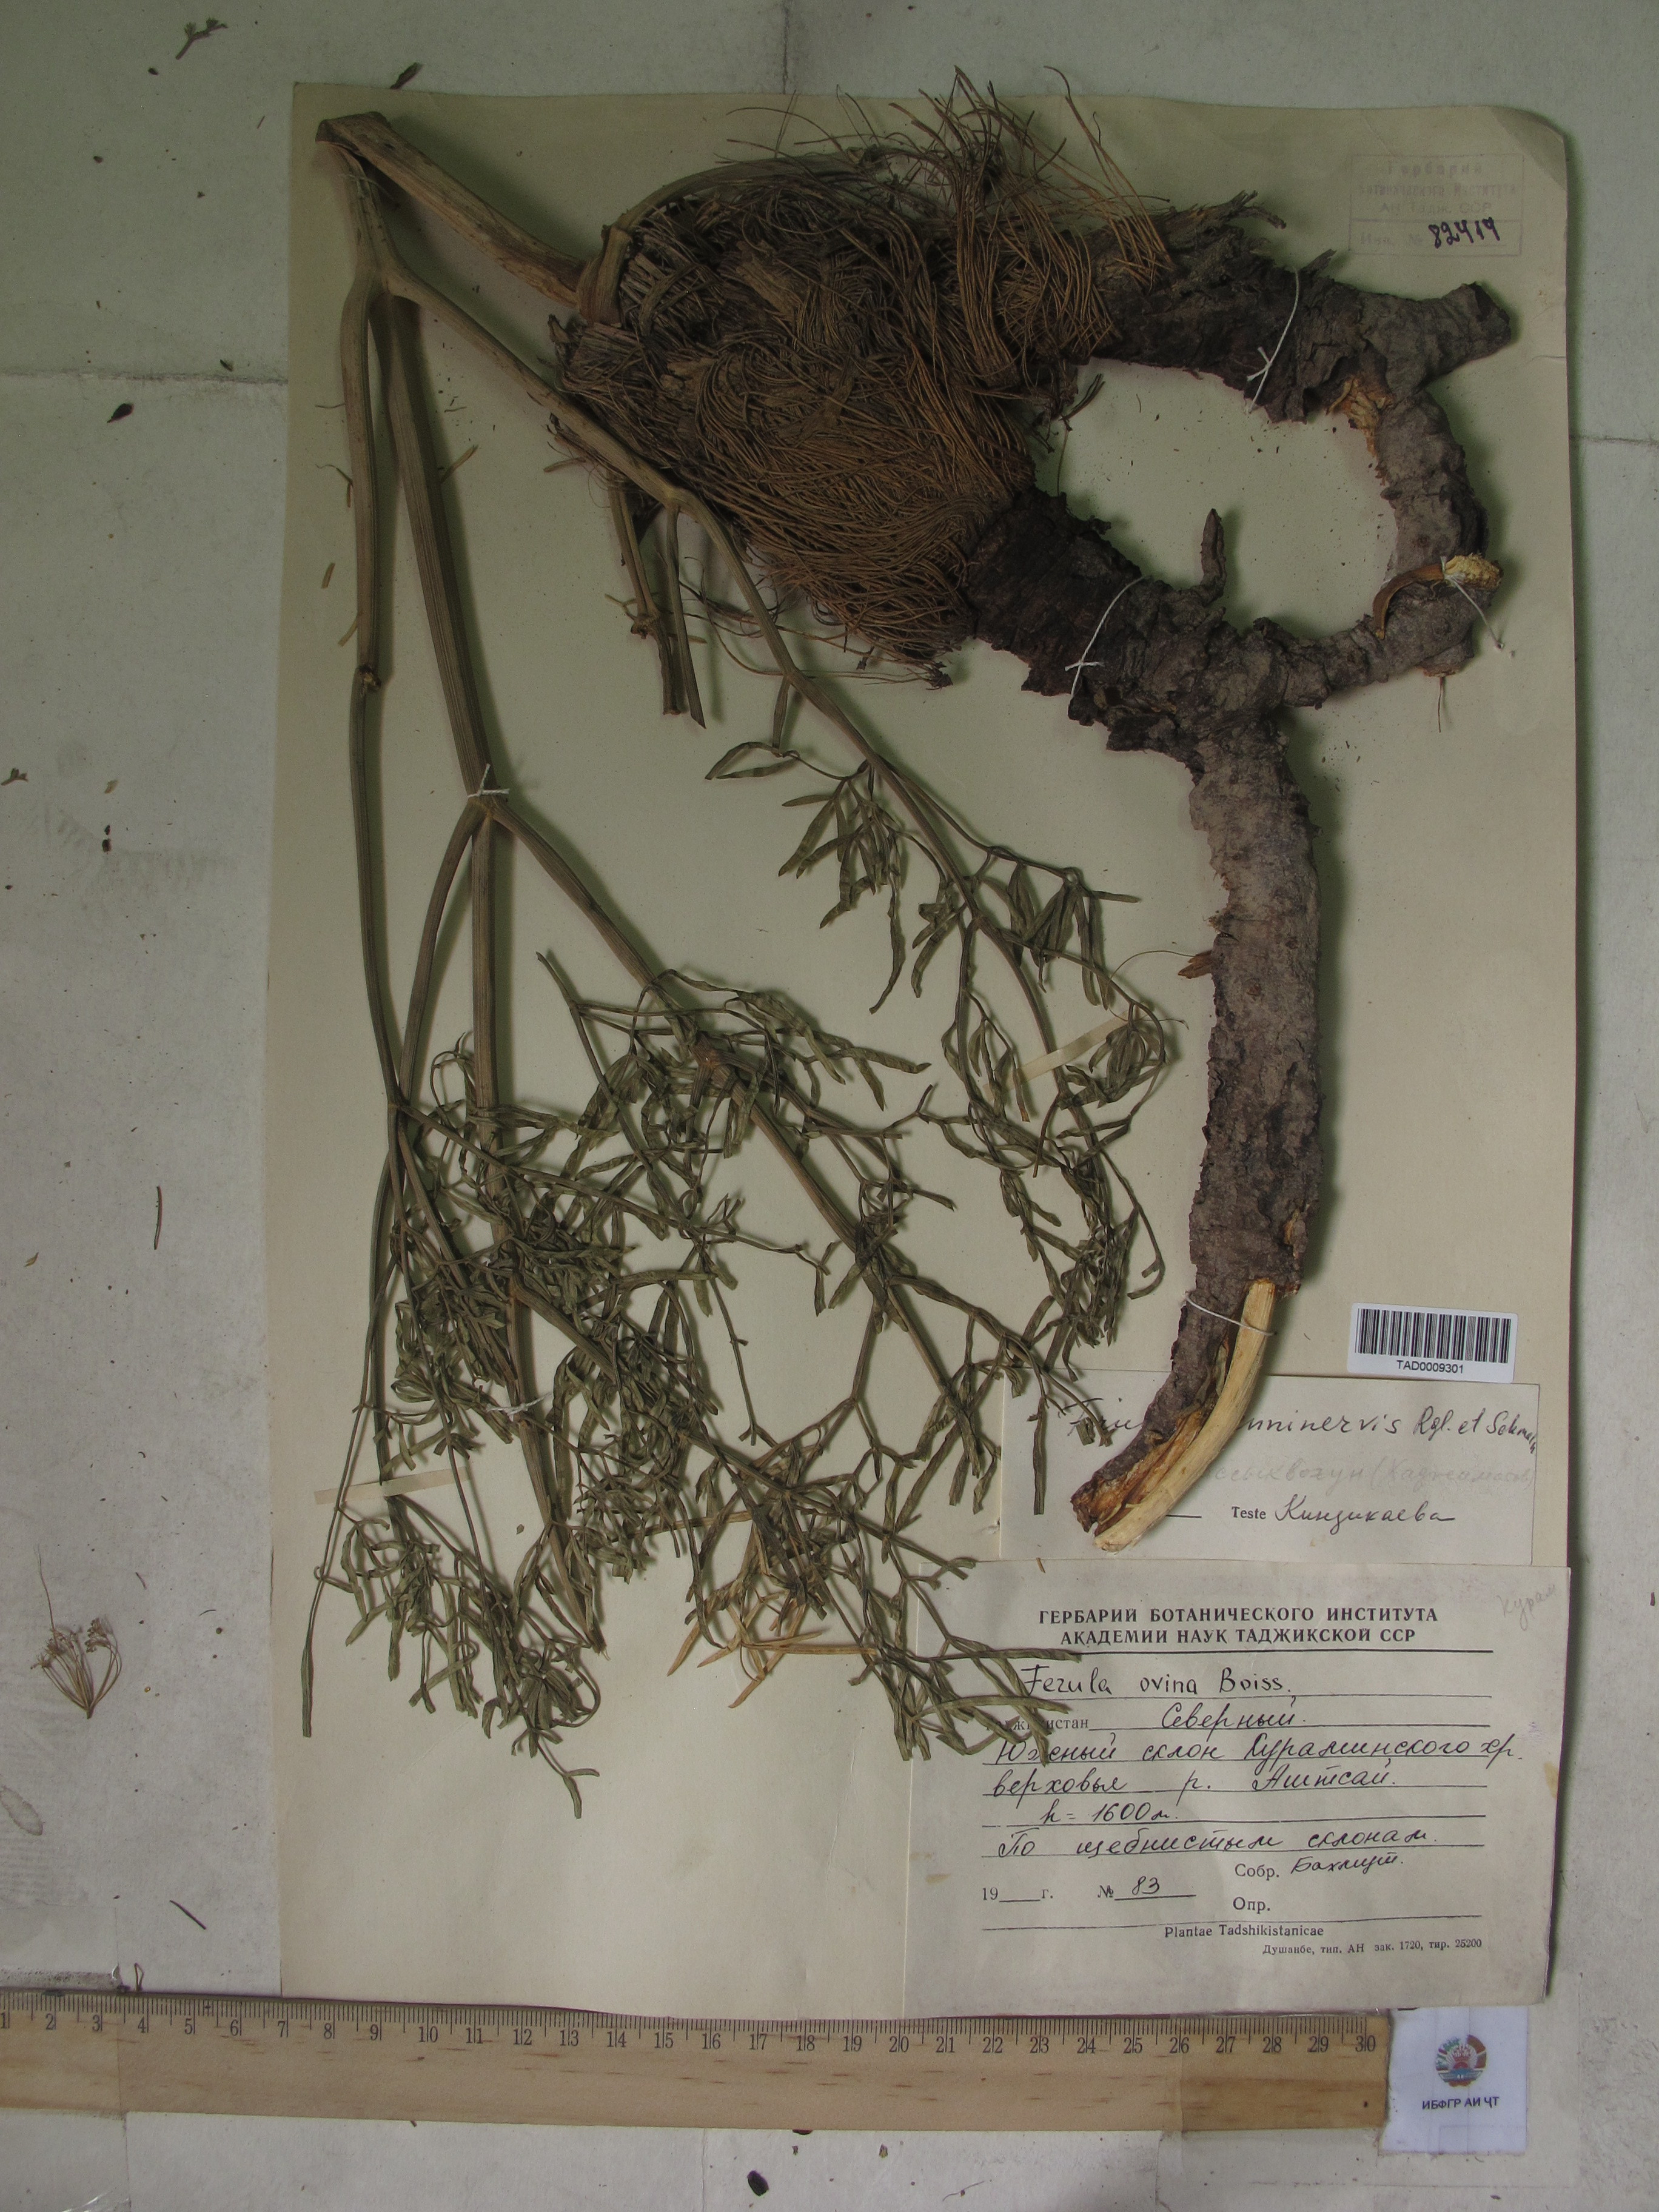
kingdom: Plantae
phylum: Tracheophyta
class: Magnoliopsida
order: Apiales
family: Apiaceae
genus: Ferula
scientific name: Ferula
